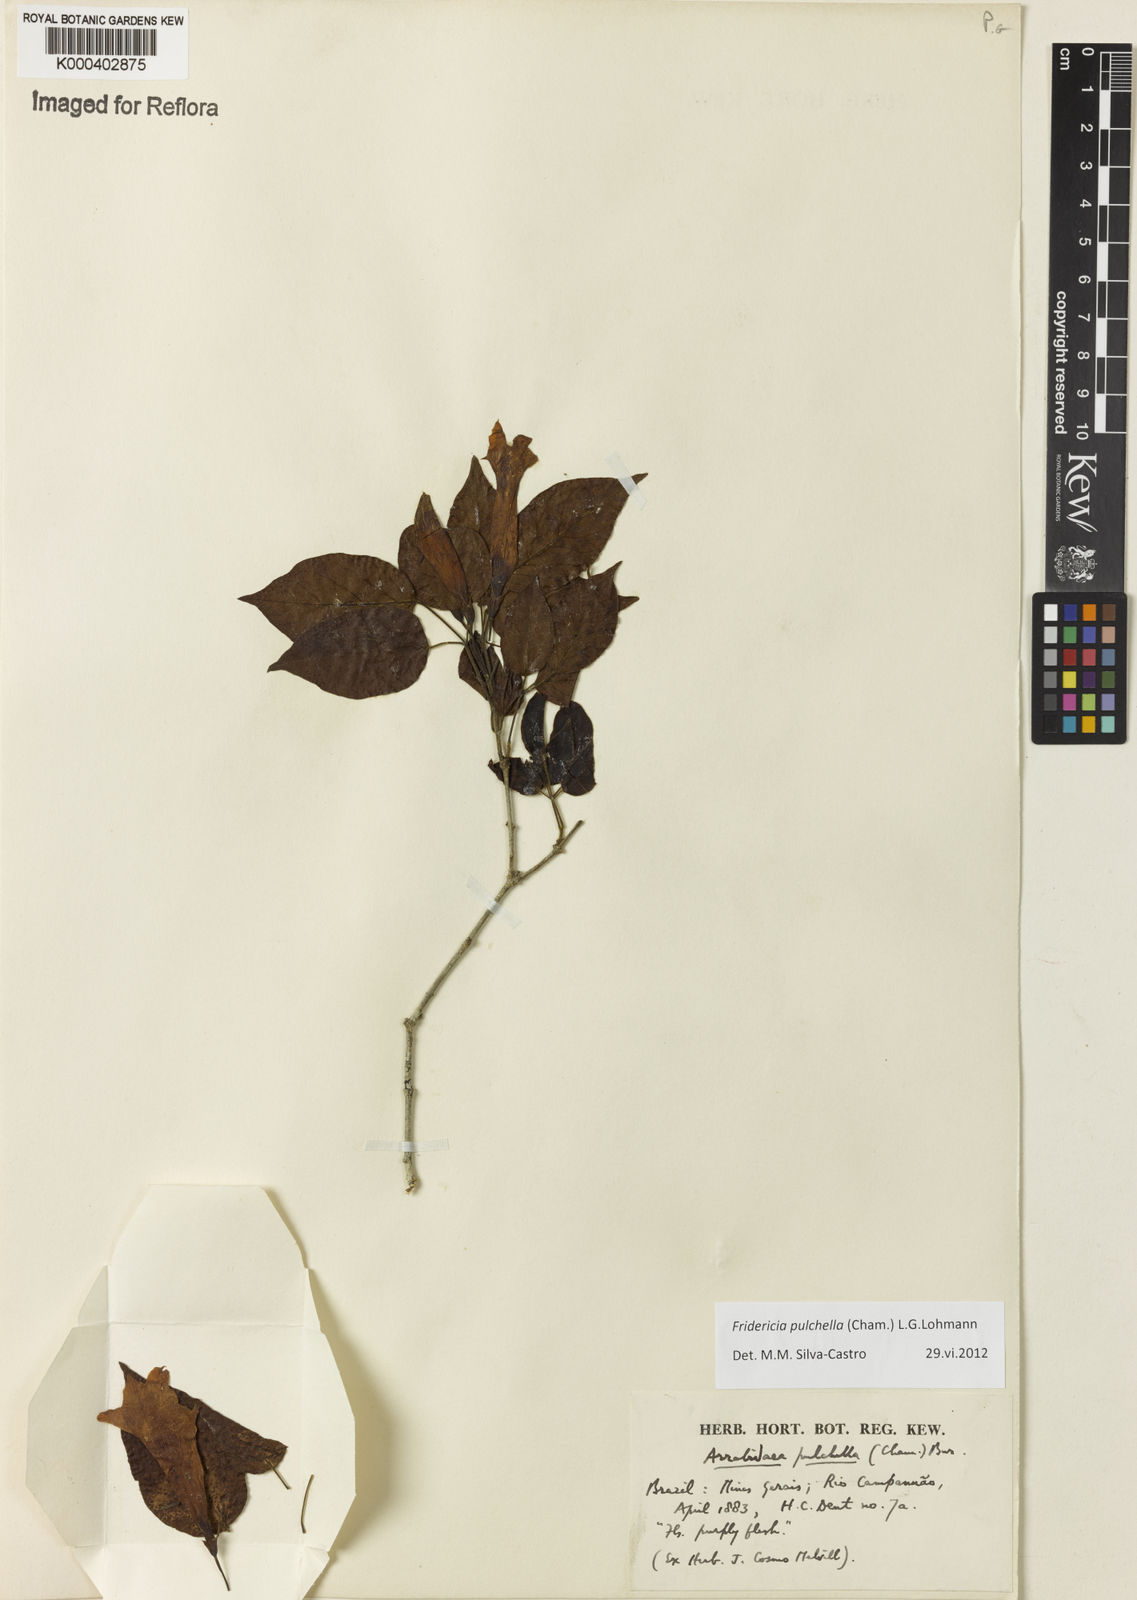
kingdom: Plantae
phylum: Tracheophyta
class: Magnoliopsida
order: Lamiales
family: Bignoniaceae
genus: Fridericia
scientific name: Fridericia
